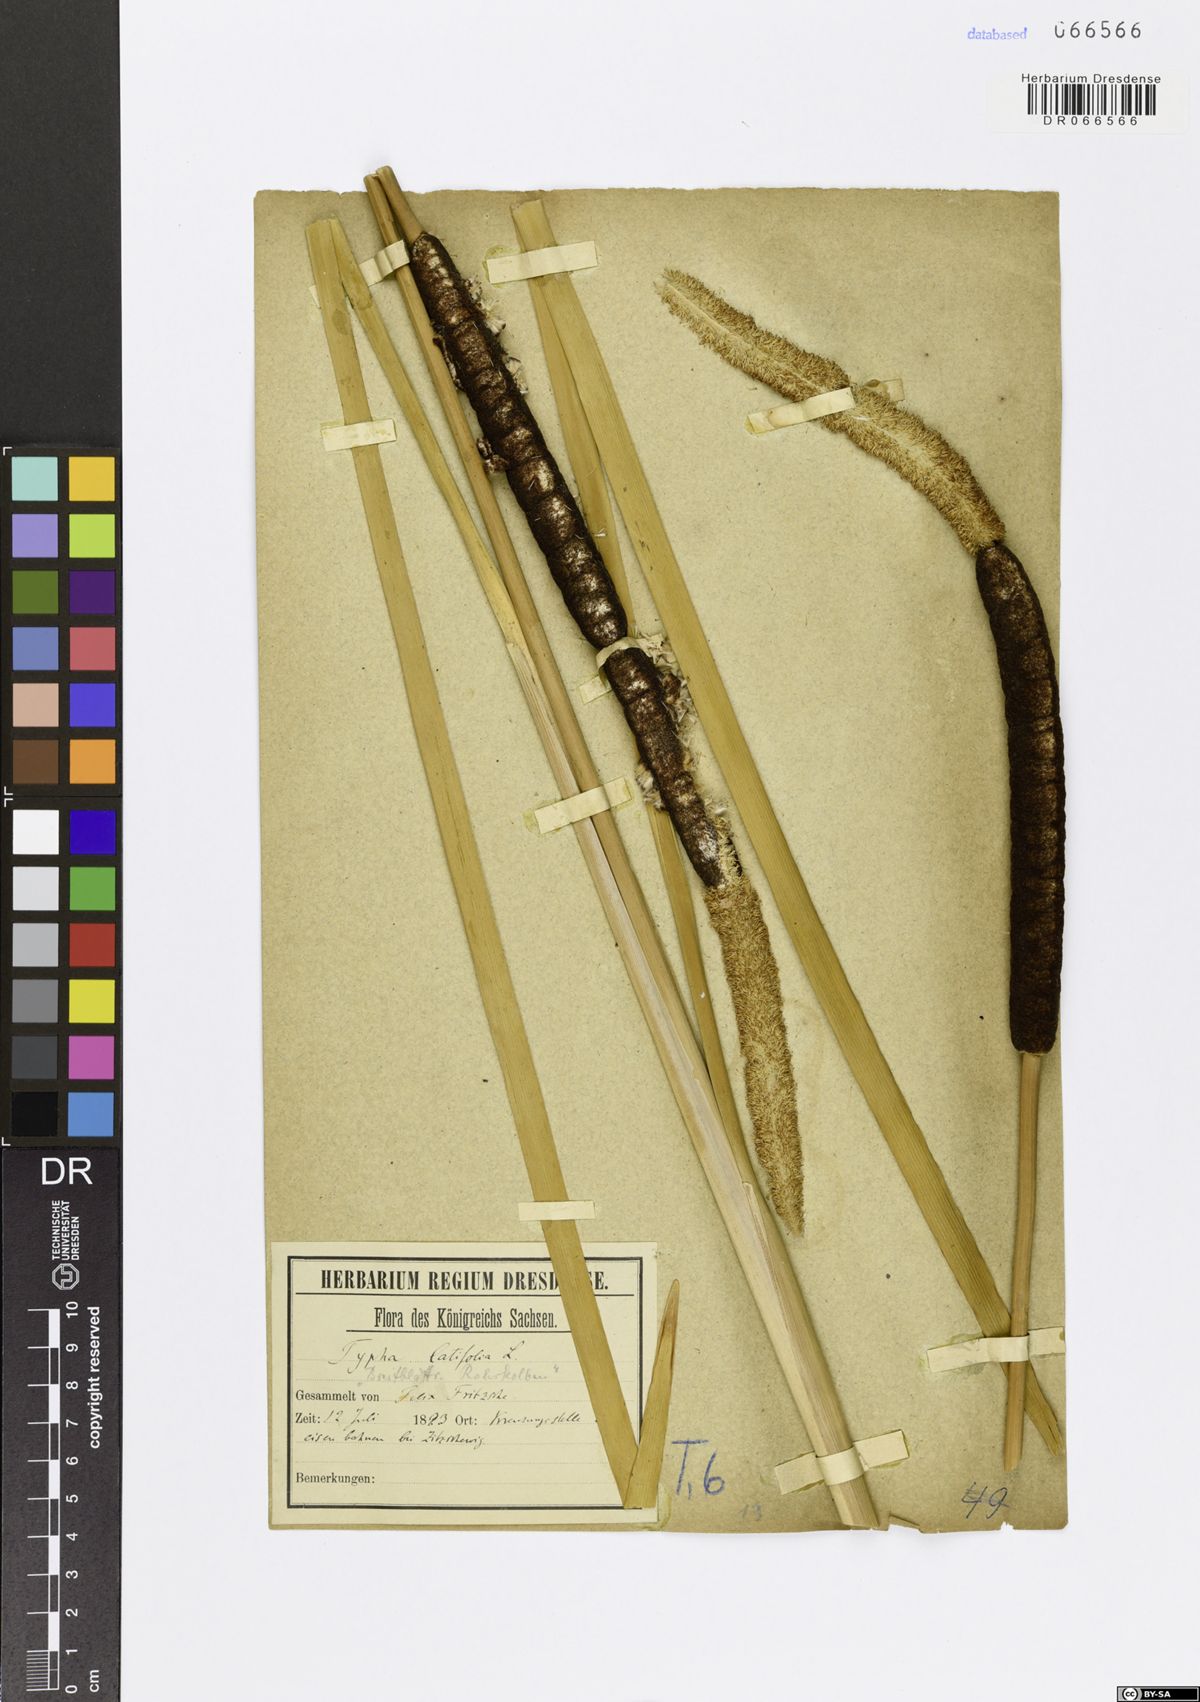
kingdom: Plantae
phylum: Tracheophyta
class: Liliopsida
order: Poales
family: Typhaceae
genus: Typha
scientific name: Typha latifolia
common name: Broadleaf cattail
